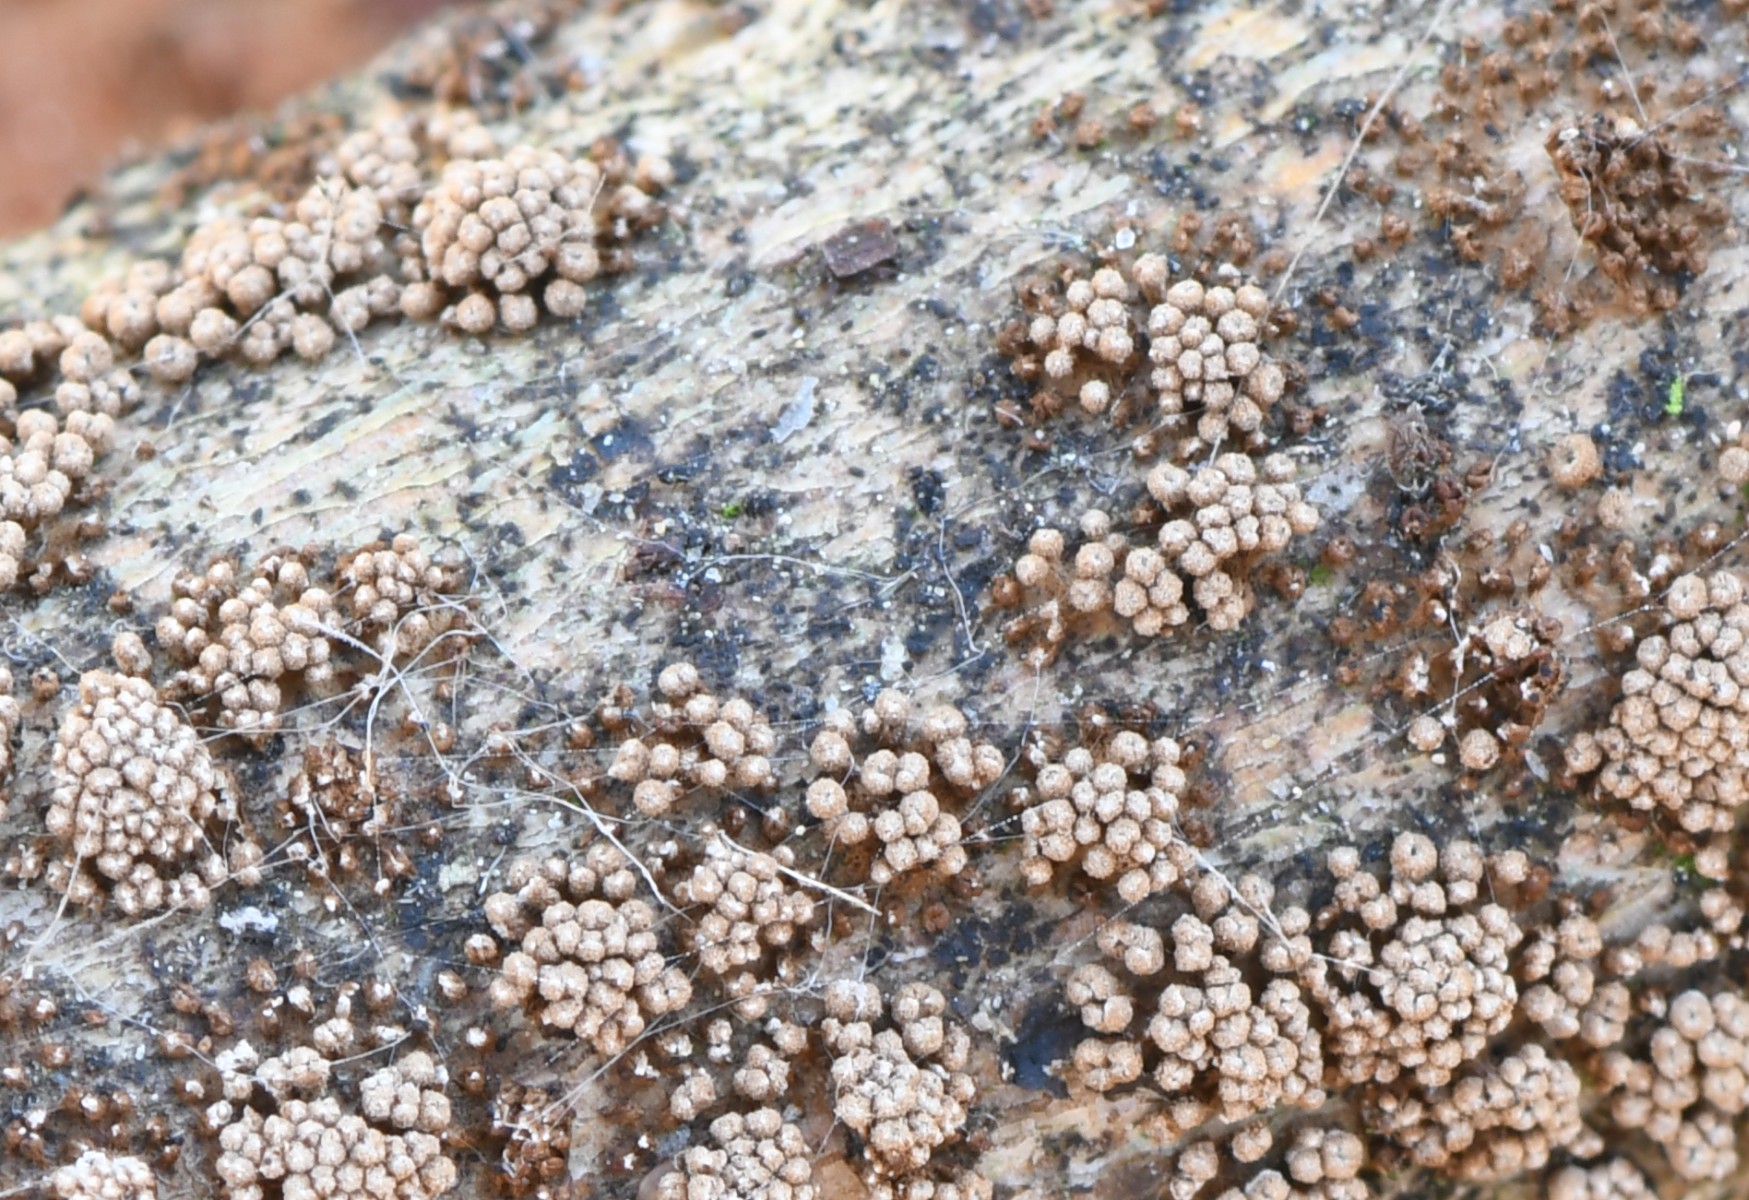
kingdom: Fungi
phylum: Basidiomycota
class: Agaricomycetes
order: Agaricales
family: Niaceae
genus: Merismodes
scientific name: Merismodes
